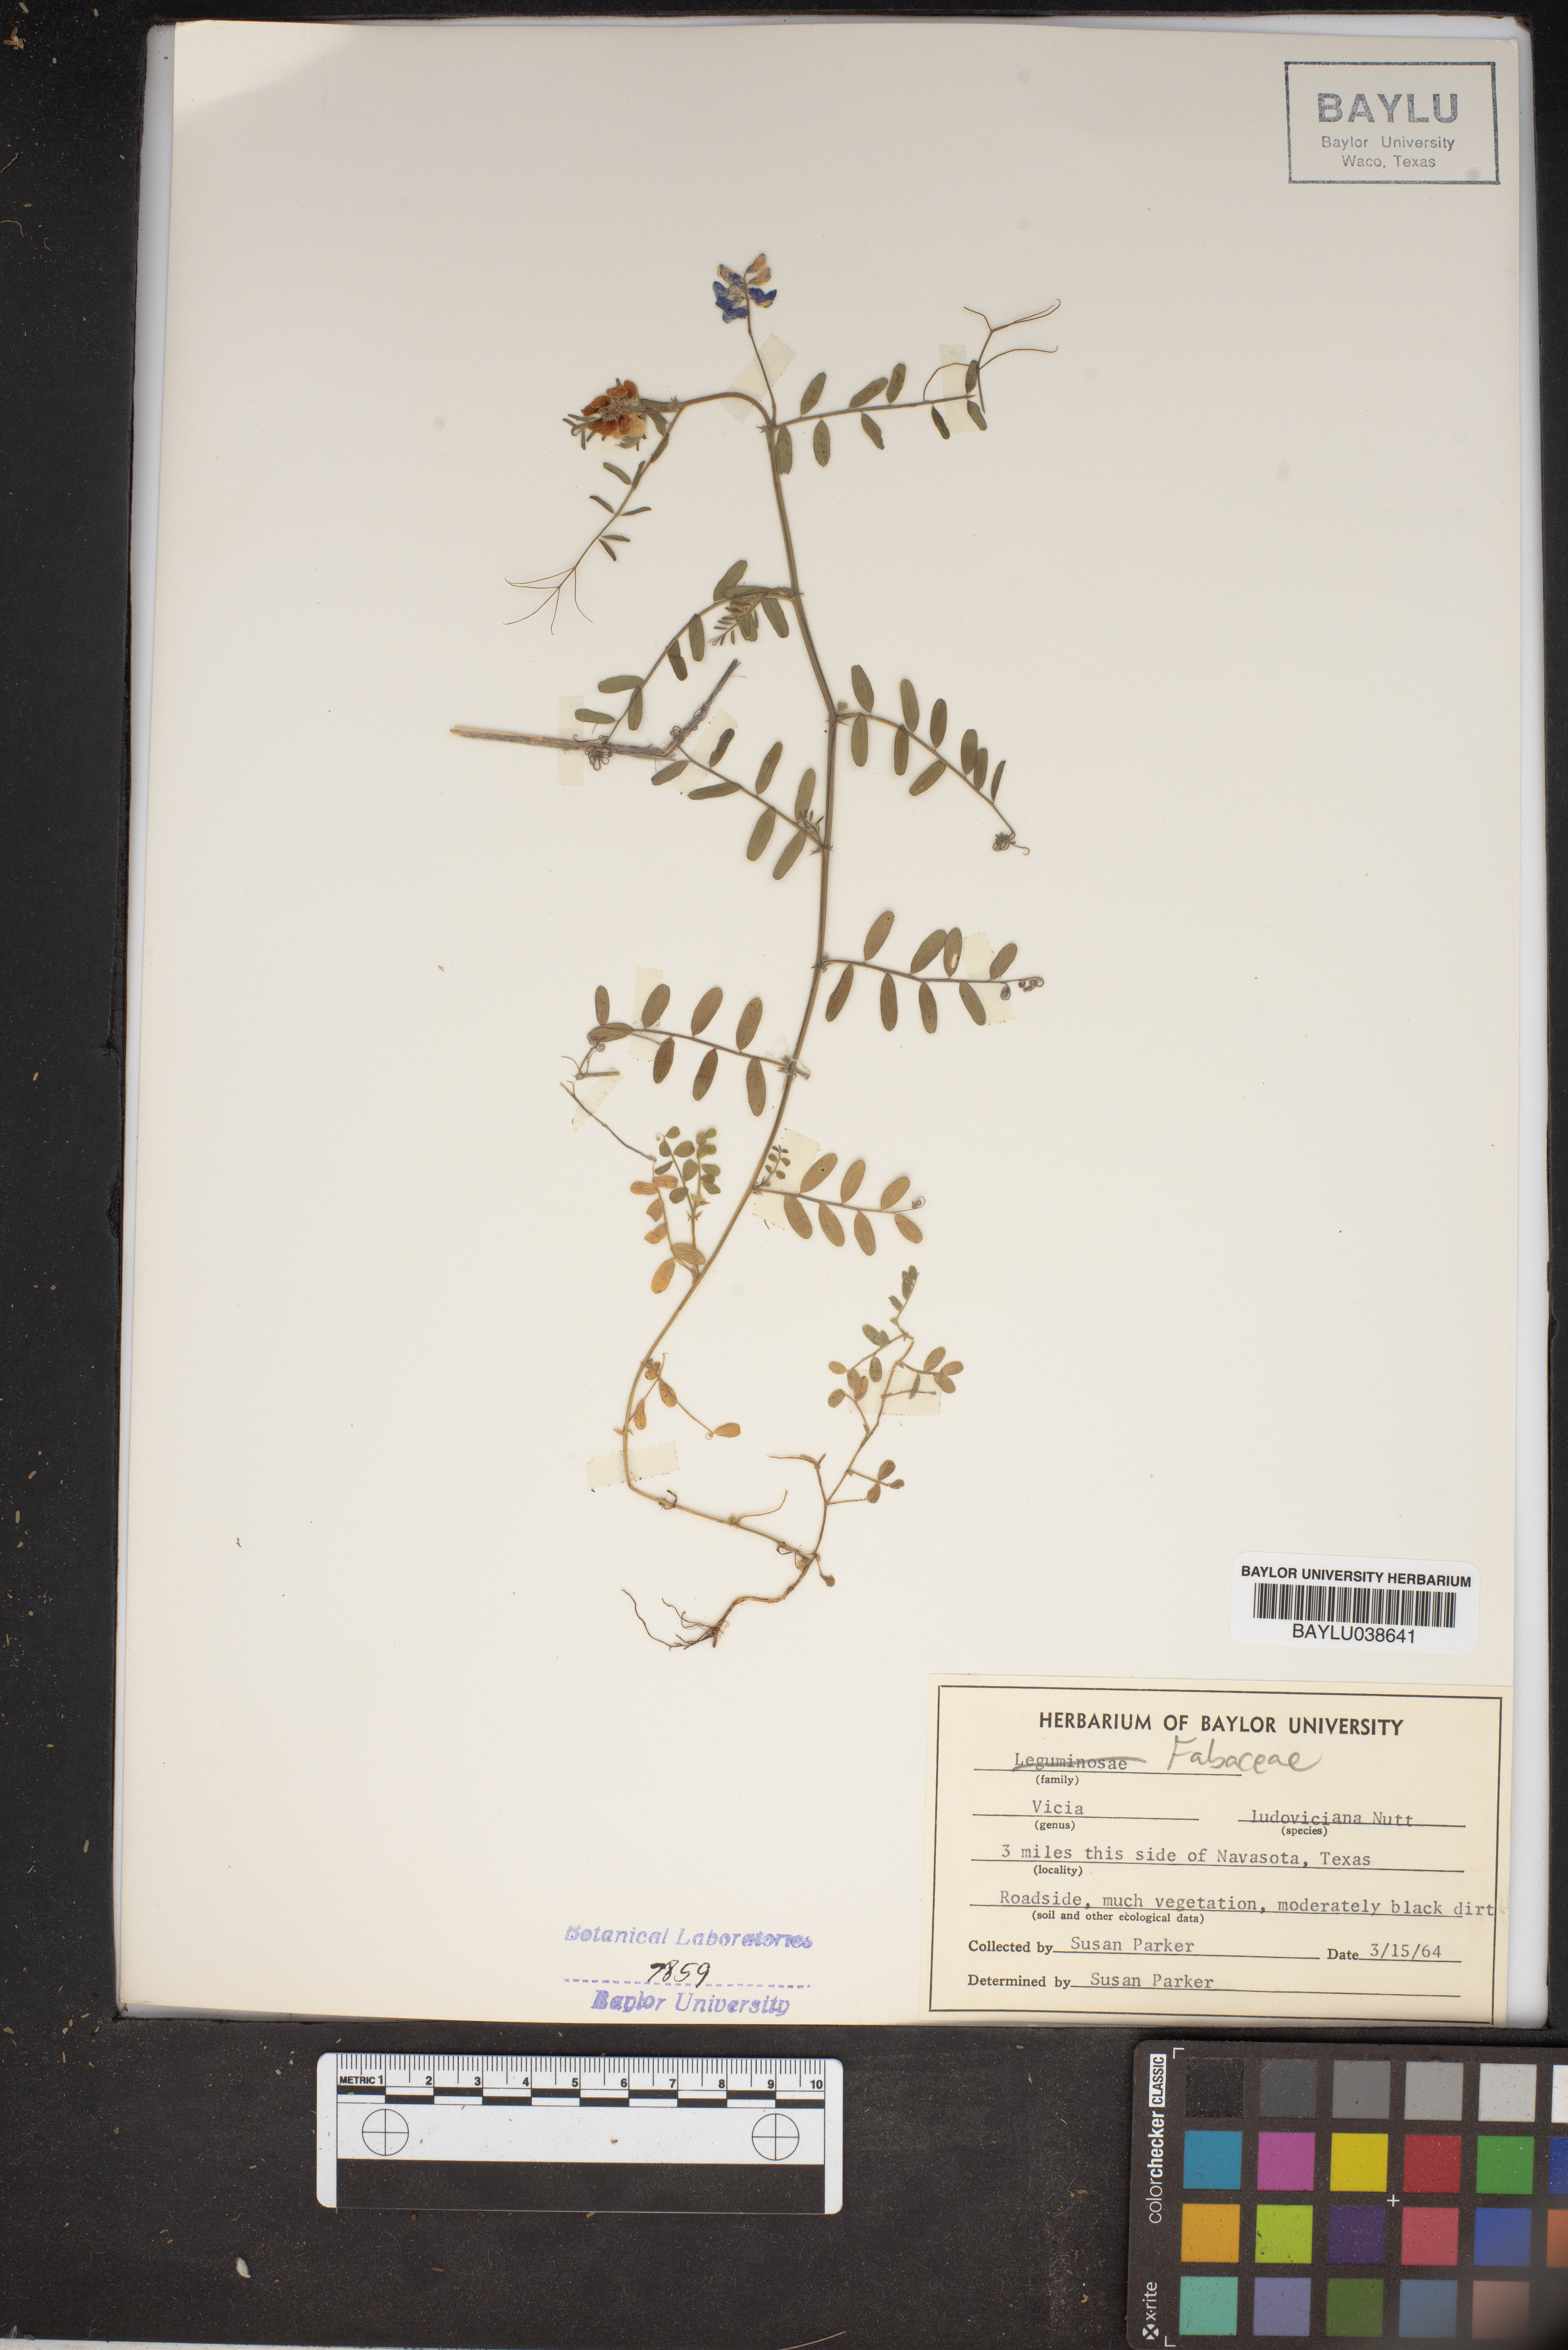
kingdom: Plantae
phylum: Tracheophyta
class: Magnoliopsida
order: Fabales
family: Fabaceae
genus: Vicia
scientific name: Vicia ludoviciana
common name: Louisiana vetch
